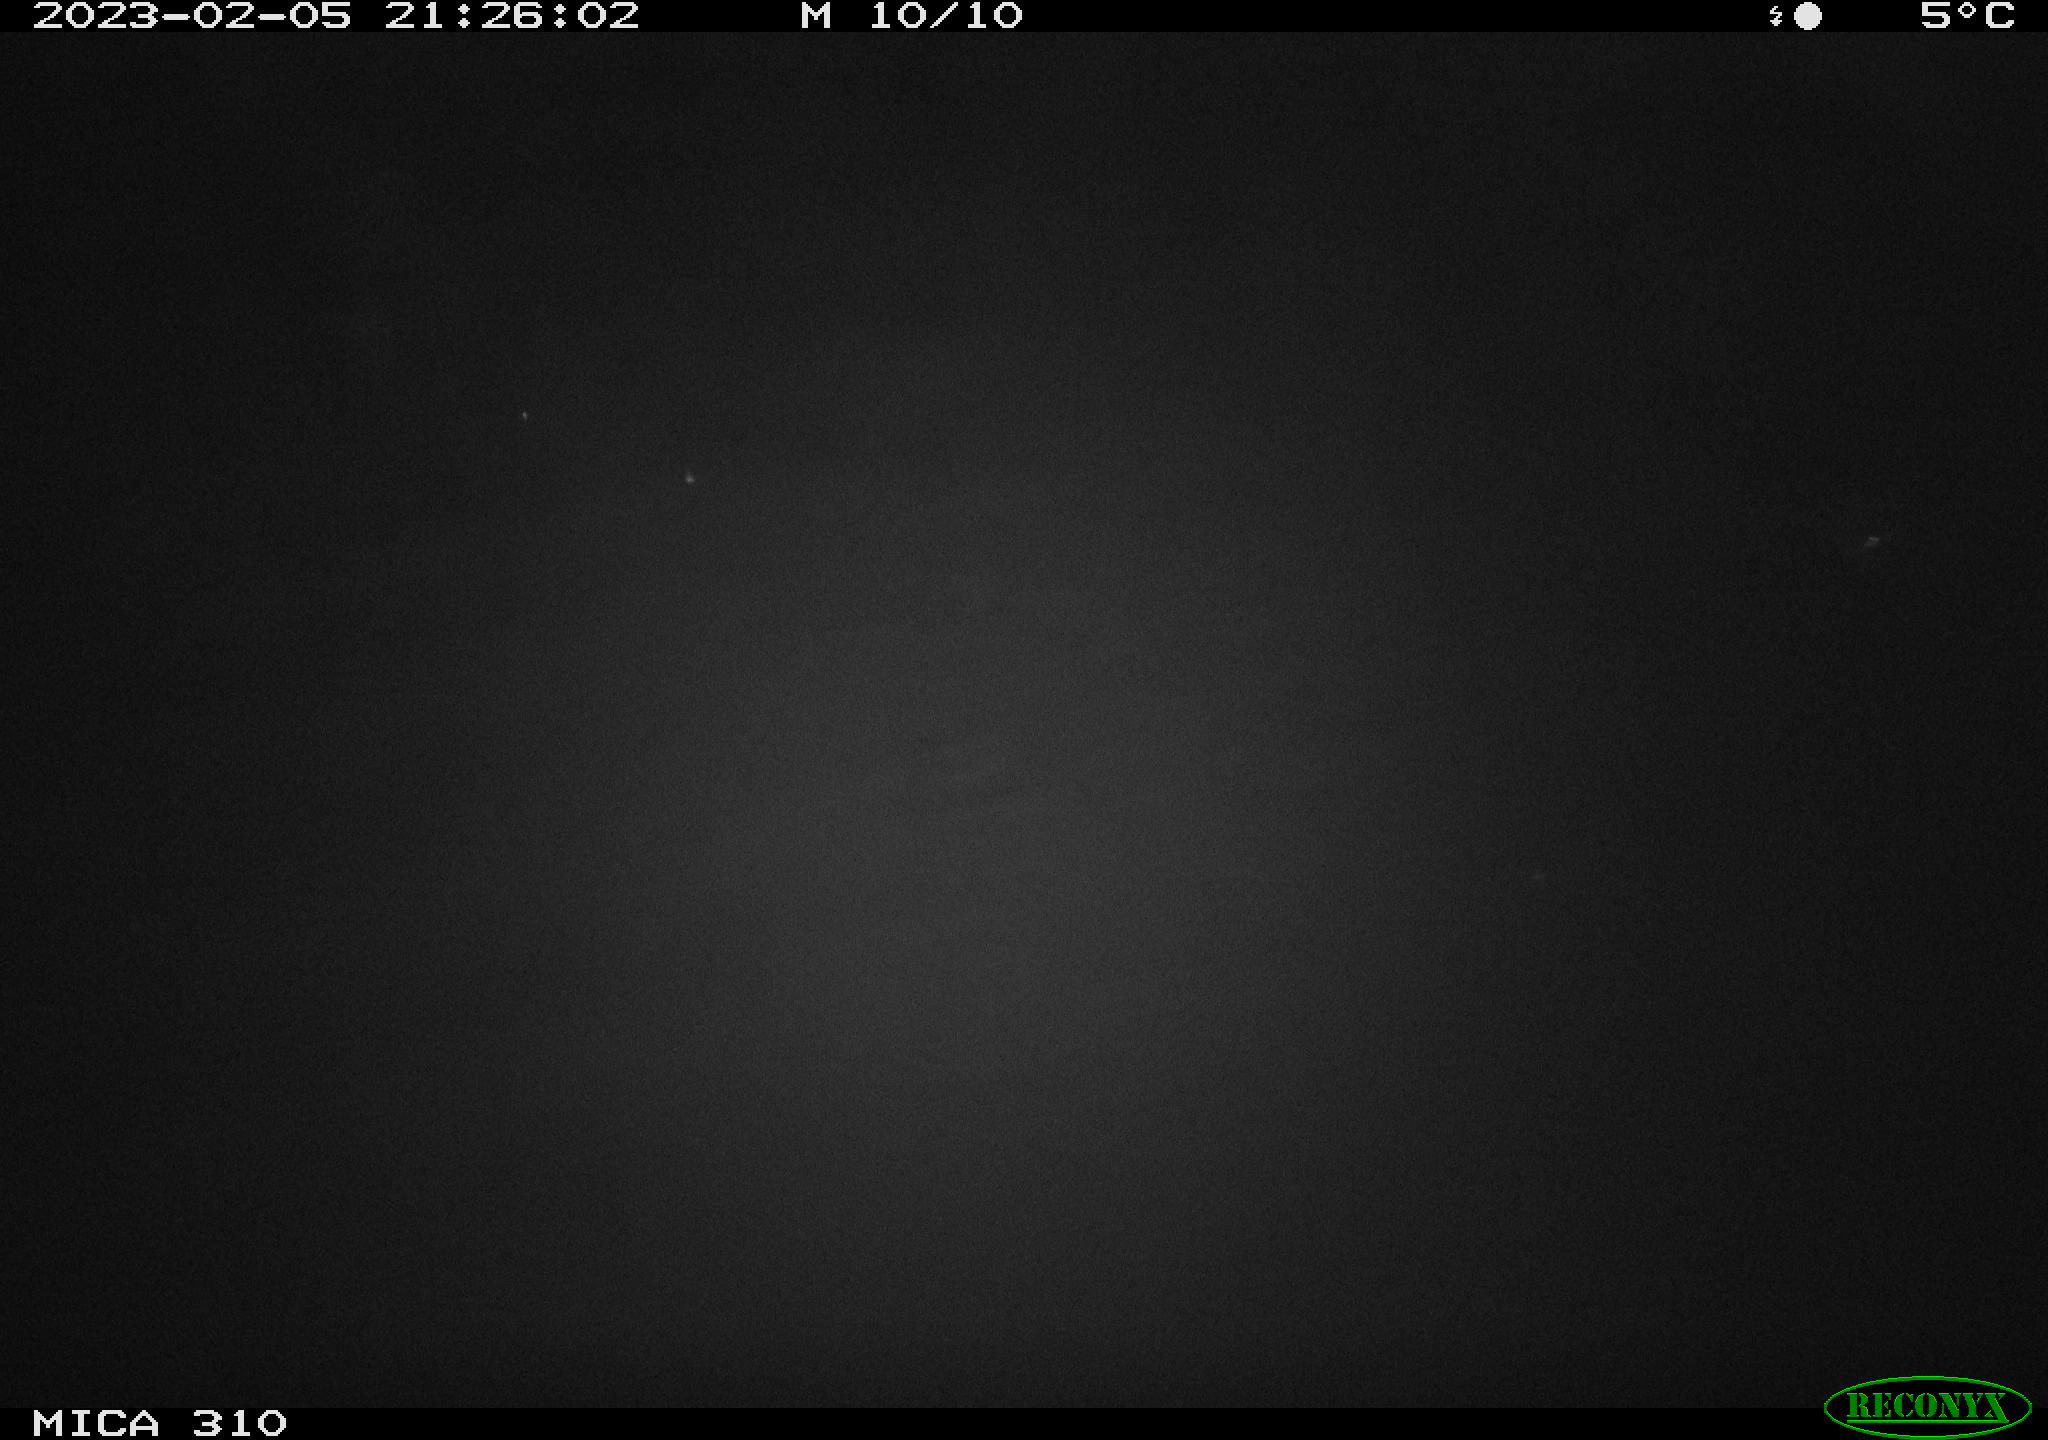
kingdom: Animalia
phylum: Chordata
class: Aves
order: Anseriformes
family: Anatidae
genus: Anas
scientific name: Anas
